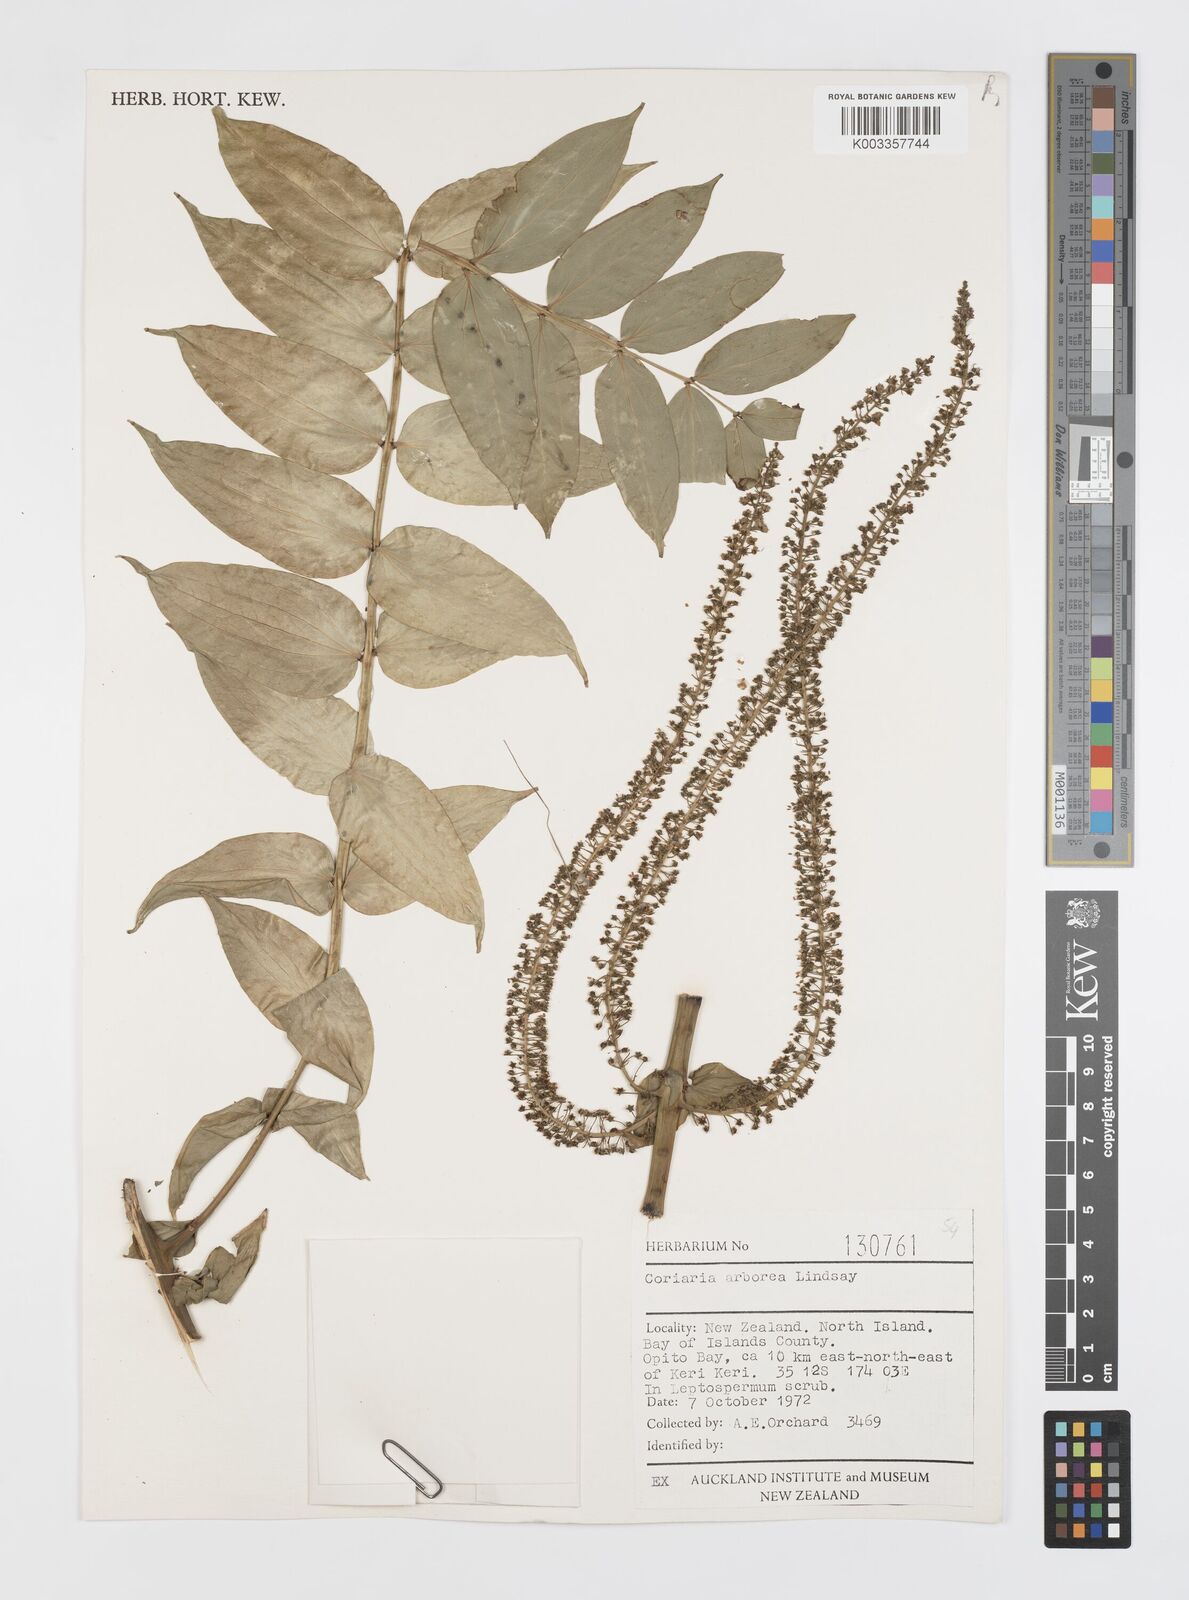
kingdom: Plantae
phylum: Tracheophyta
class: Magnoliopsida
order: Cucurbitales
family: Coriariaceae
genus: Coriaria
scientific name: Coriaria arborea
